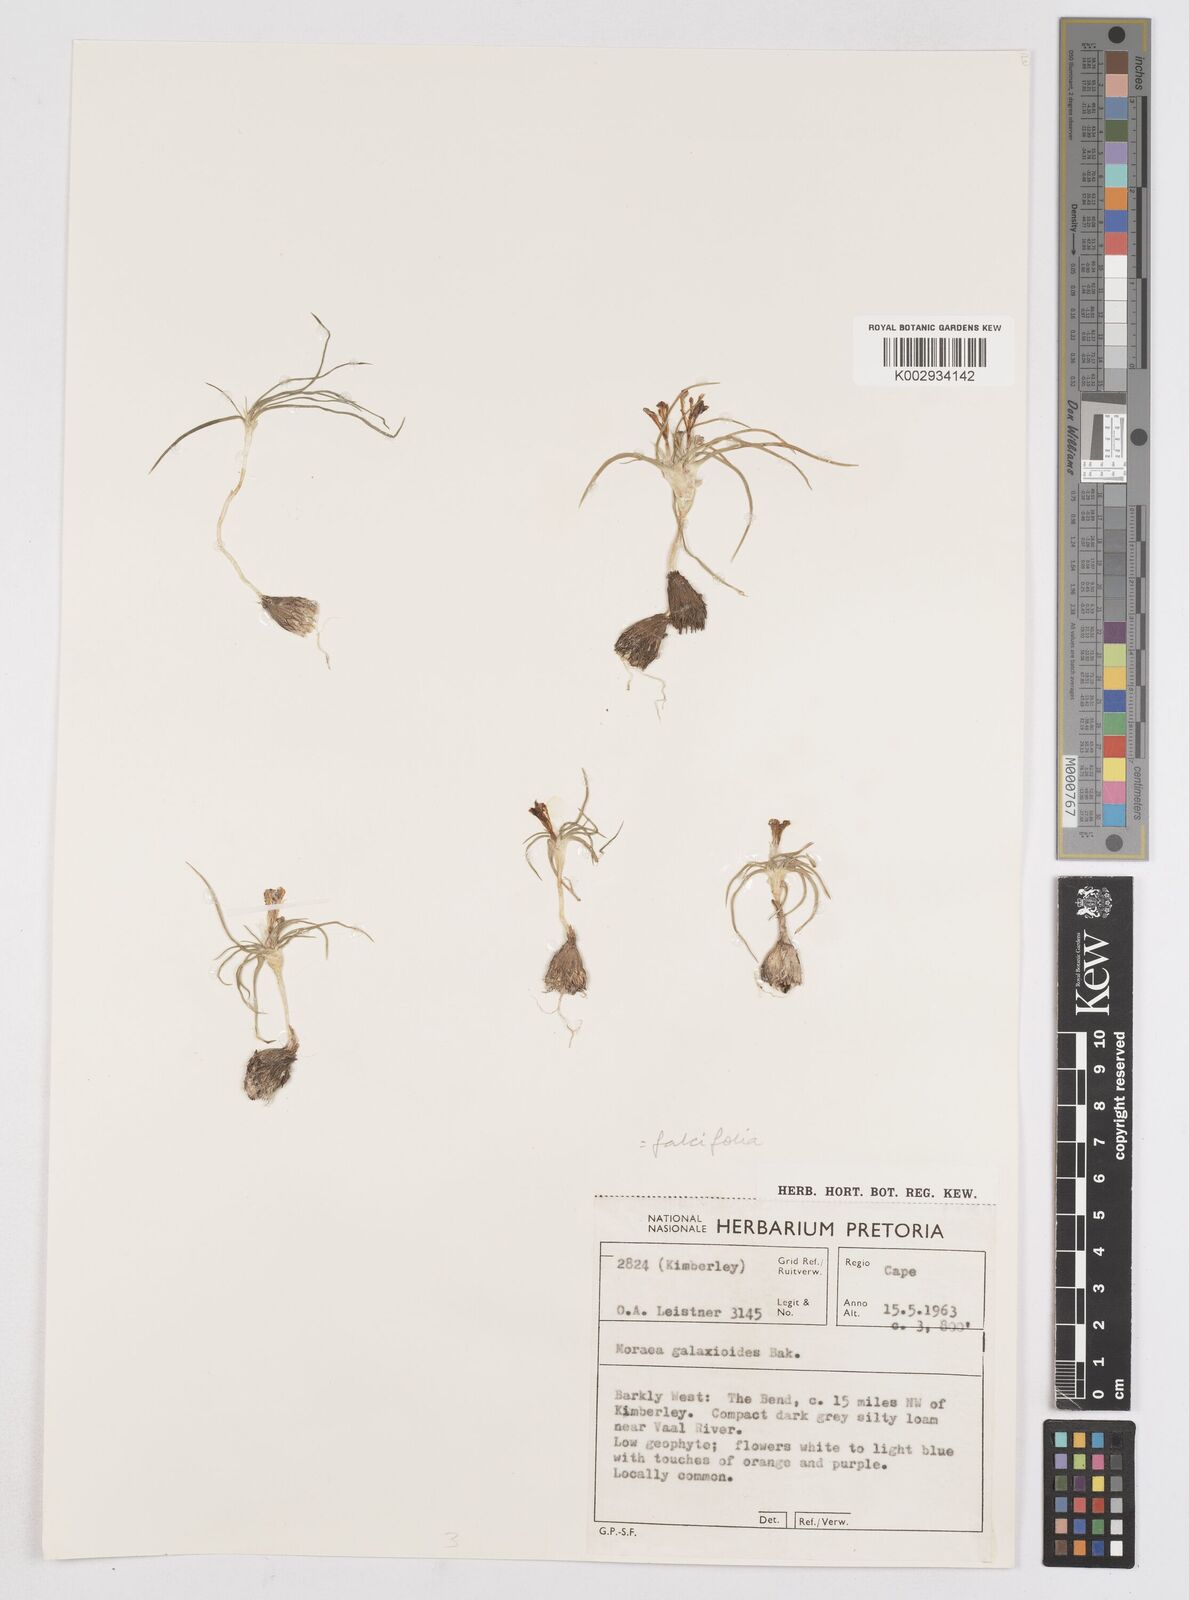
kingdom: Plantae
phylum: Tracheophyta
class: Liliopsida
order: Asparagales
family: Iridaceae
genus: Moraea
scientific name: Moraea falcifolia
